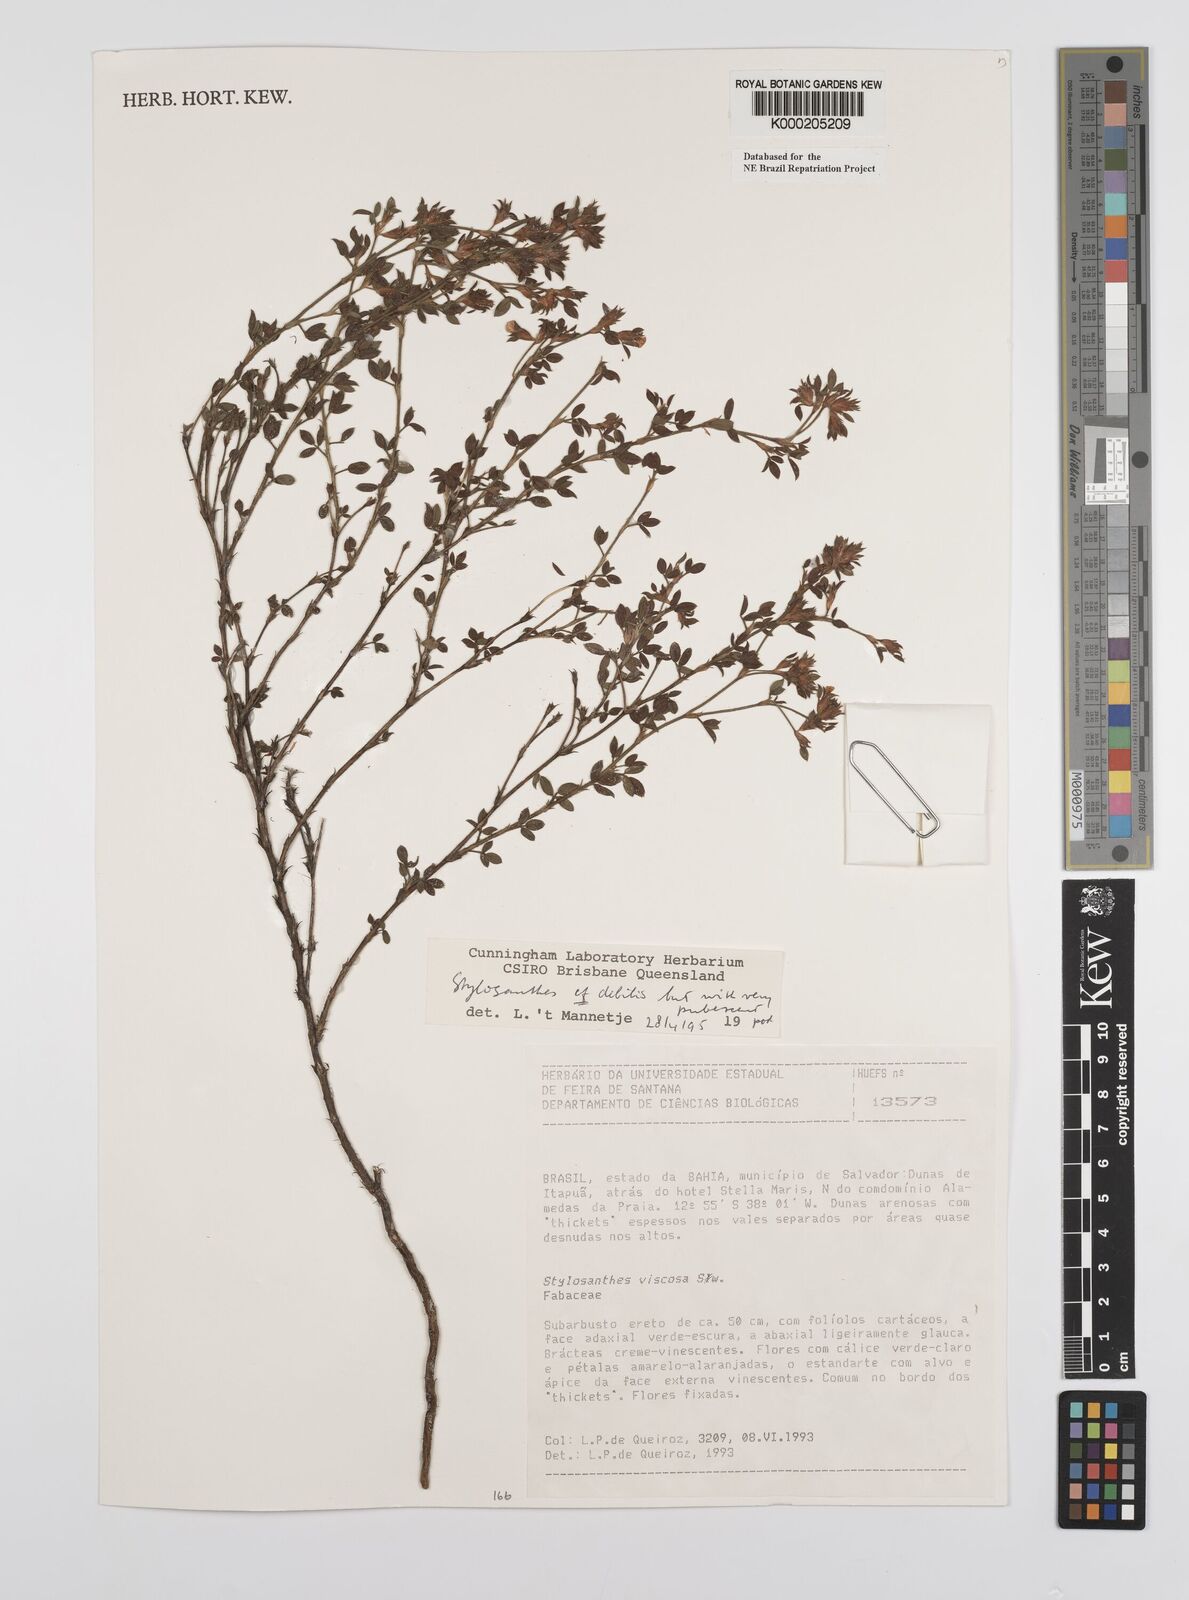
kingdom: Plantae
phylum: Tracheophyta
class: Magnoliopsida
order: Fabales
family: Fabaceae
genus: Stylosanthes
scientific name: Stylosanthes viscosa
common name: Viscid pencil-flower
